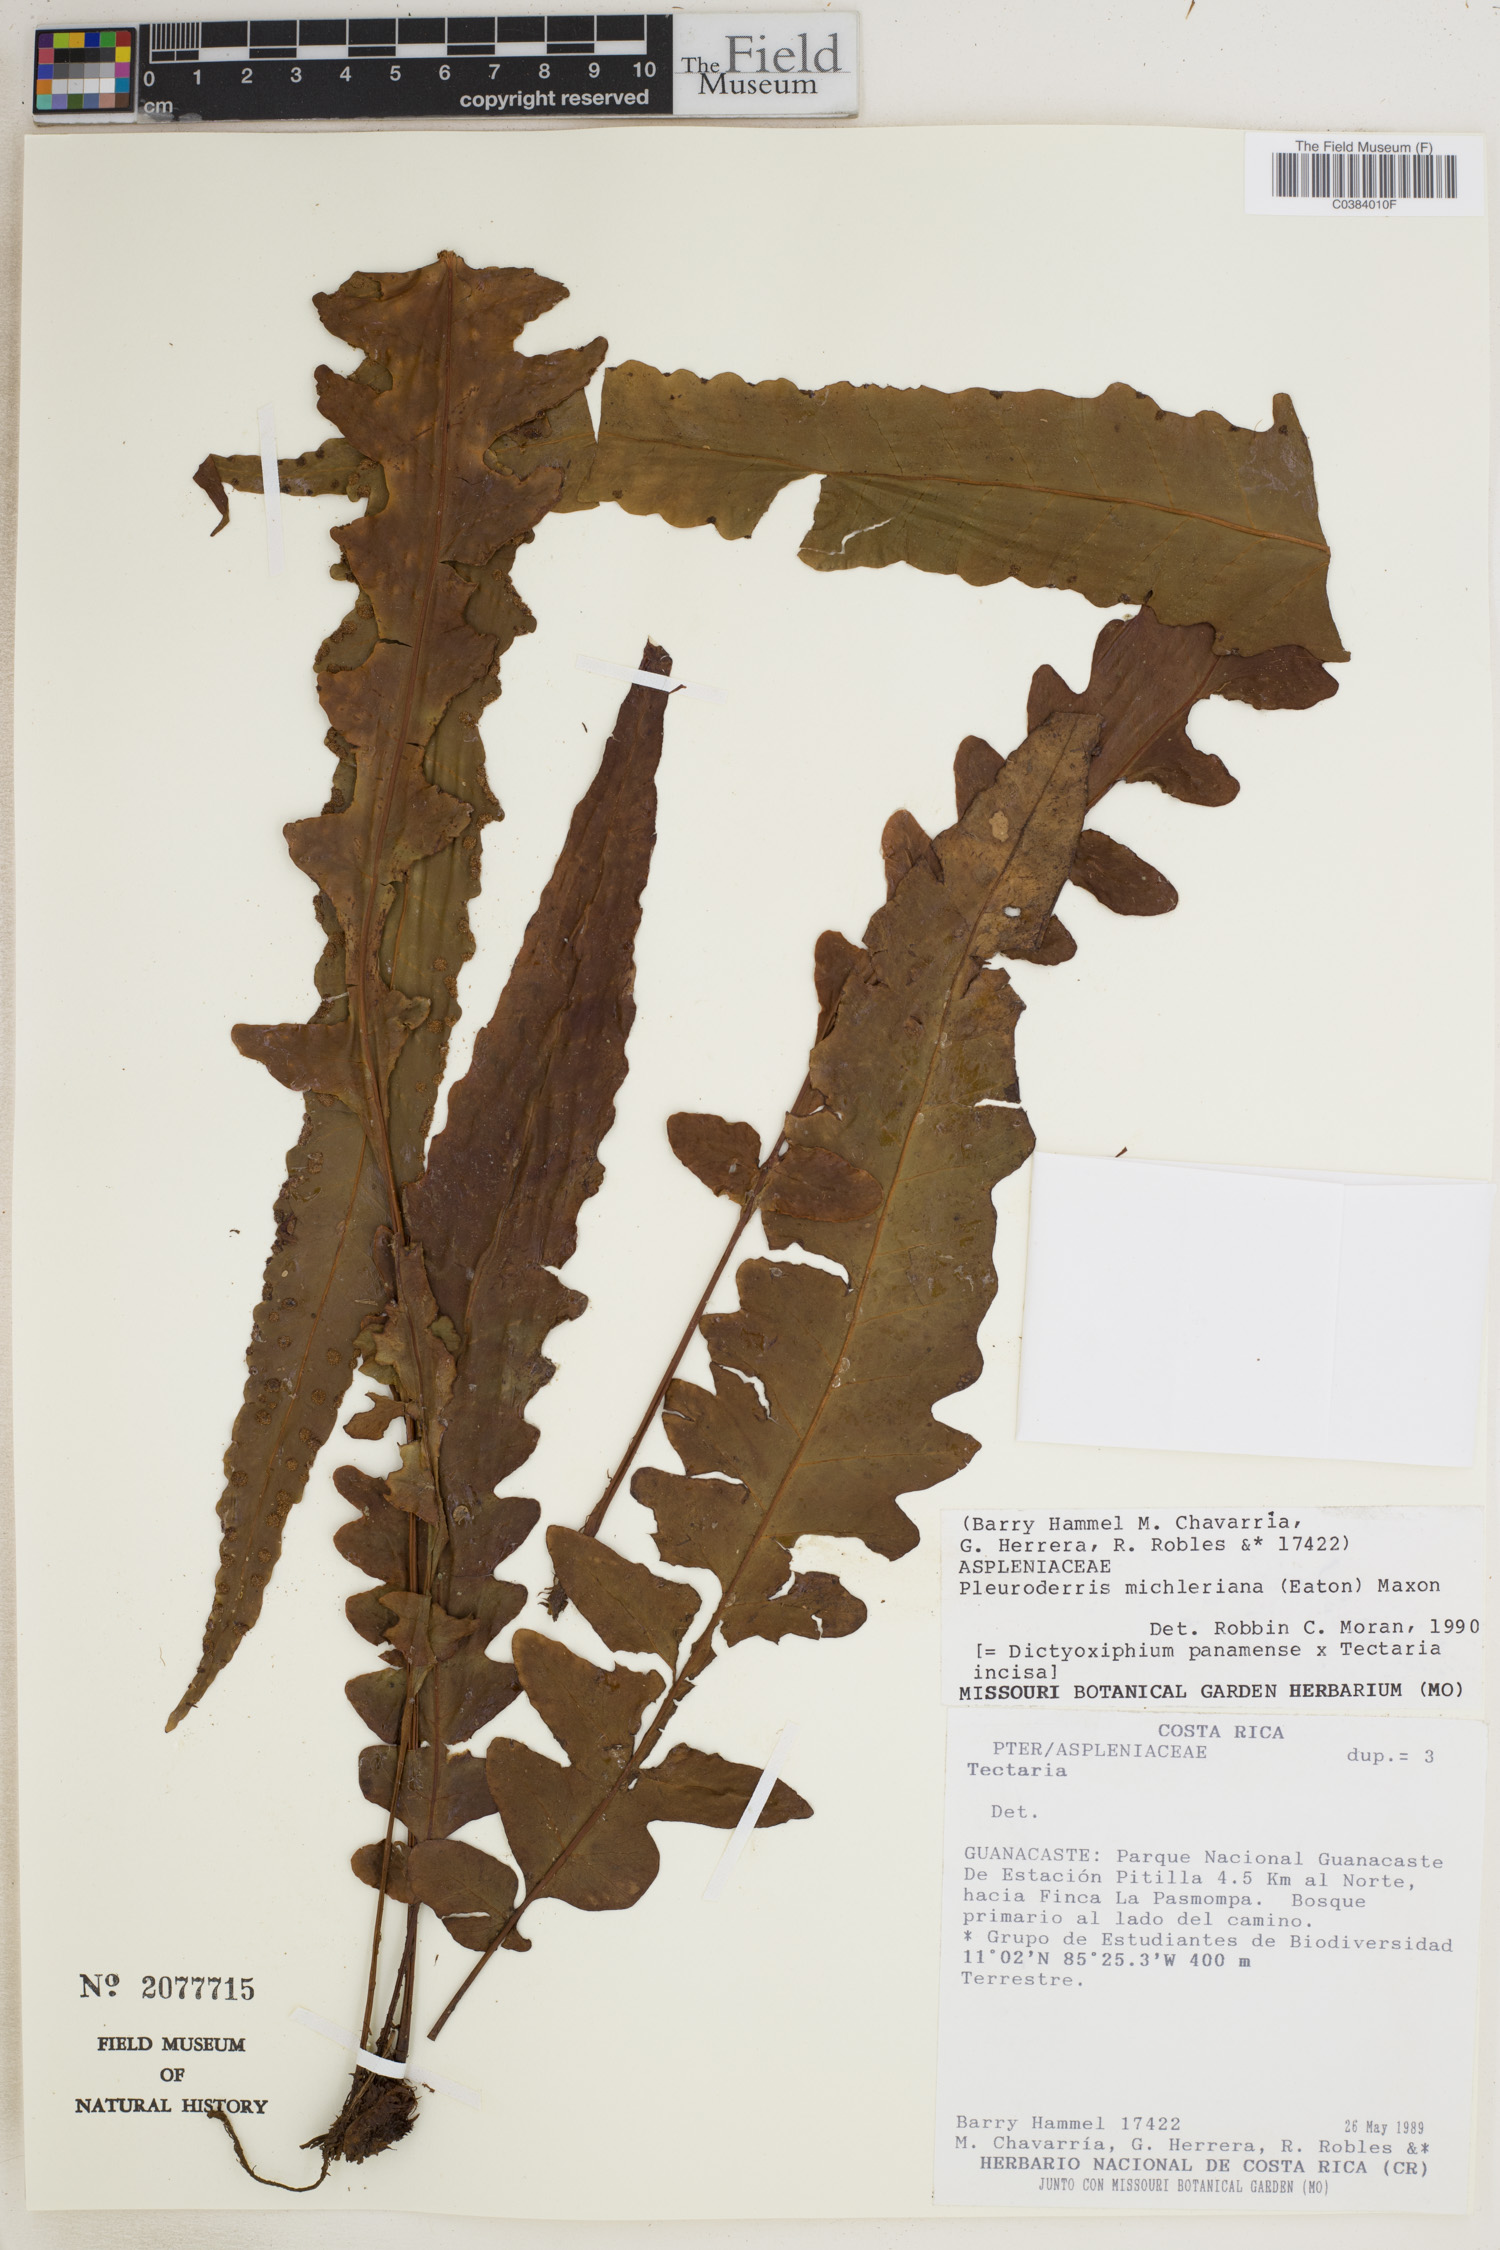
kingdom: Plantae
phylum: Tracheophyta
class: Polypodiopsida
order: Polypodiales
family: Tectariaceae
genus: Tectaria
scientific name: Tectaria michleriana
